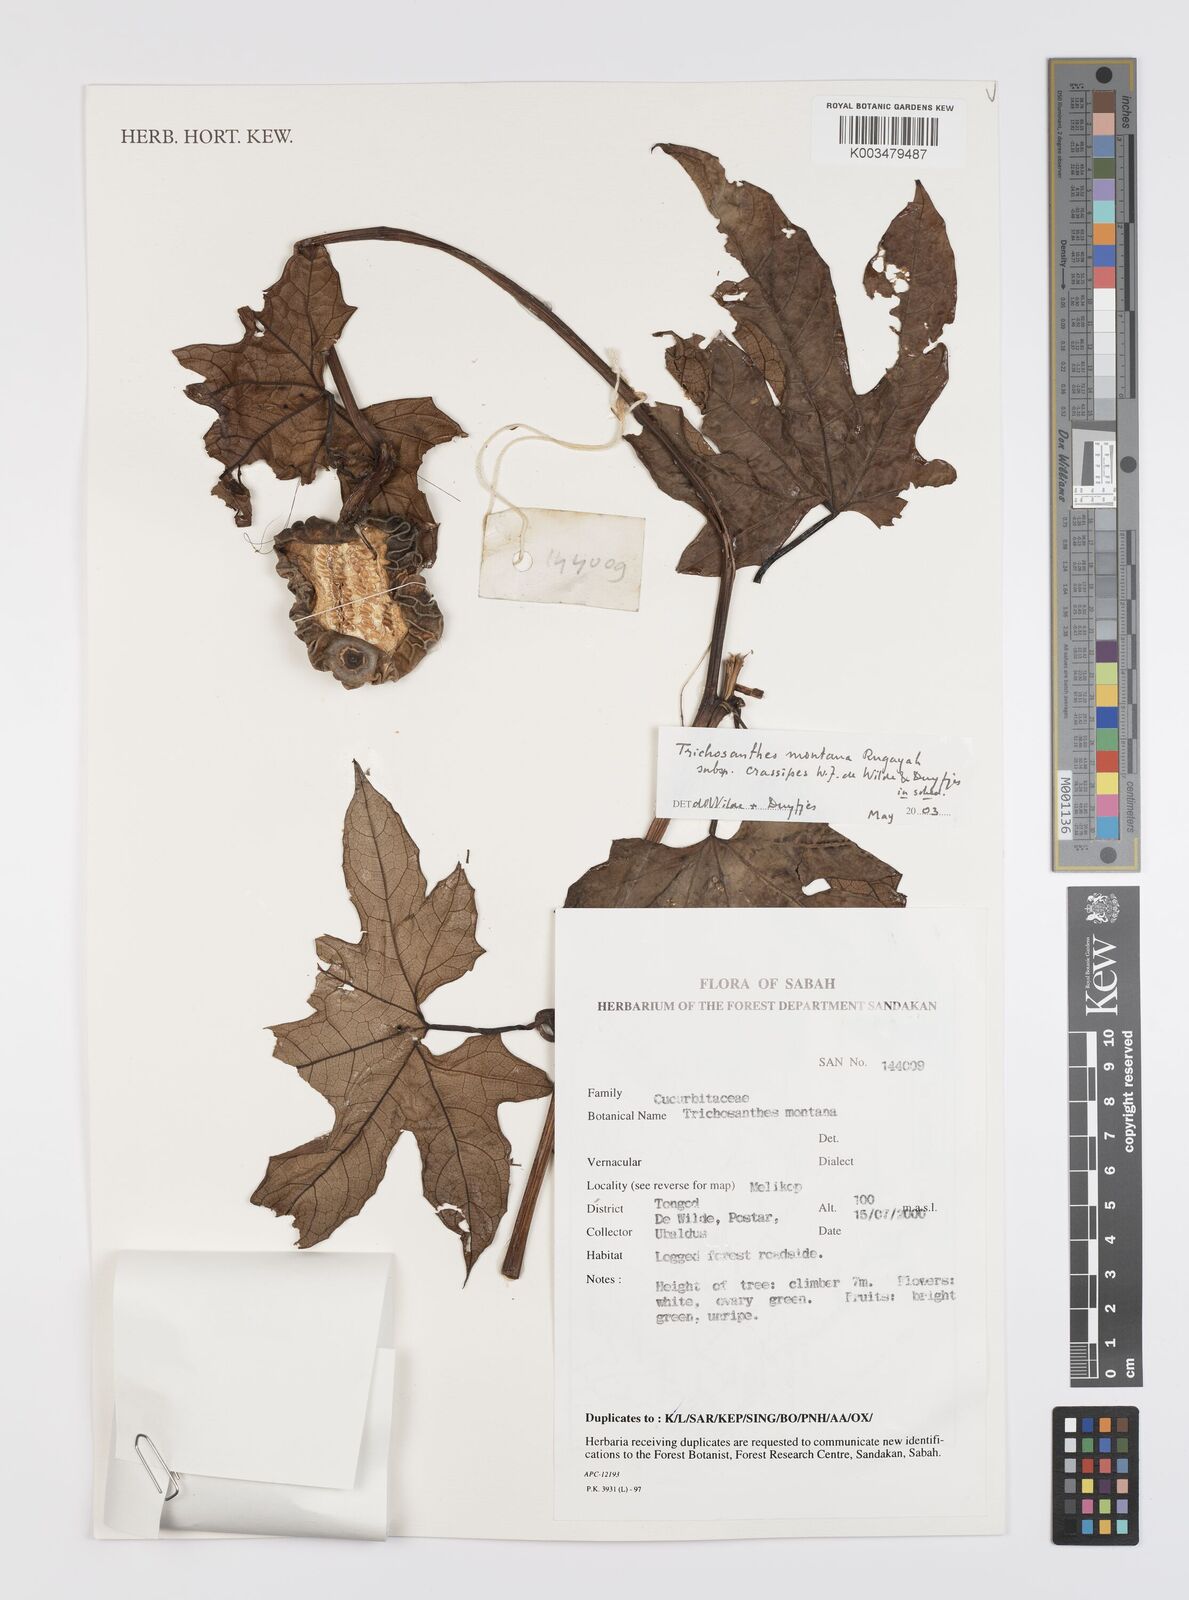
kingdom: Plantae
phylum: Tracheophyta
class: Magnoliopsida
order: Cucurbitales
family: Cucurbitaceae
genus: Trichosanthes
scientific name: Trichosanthes
